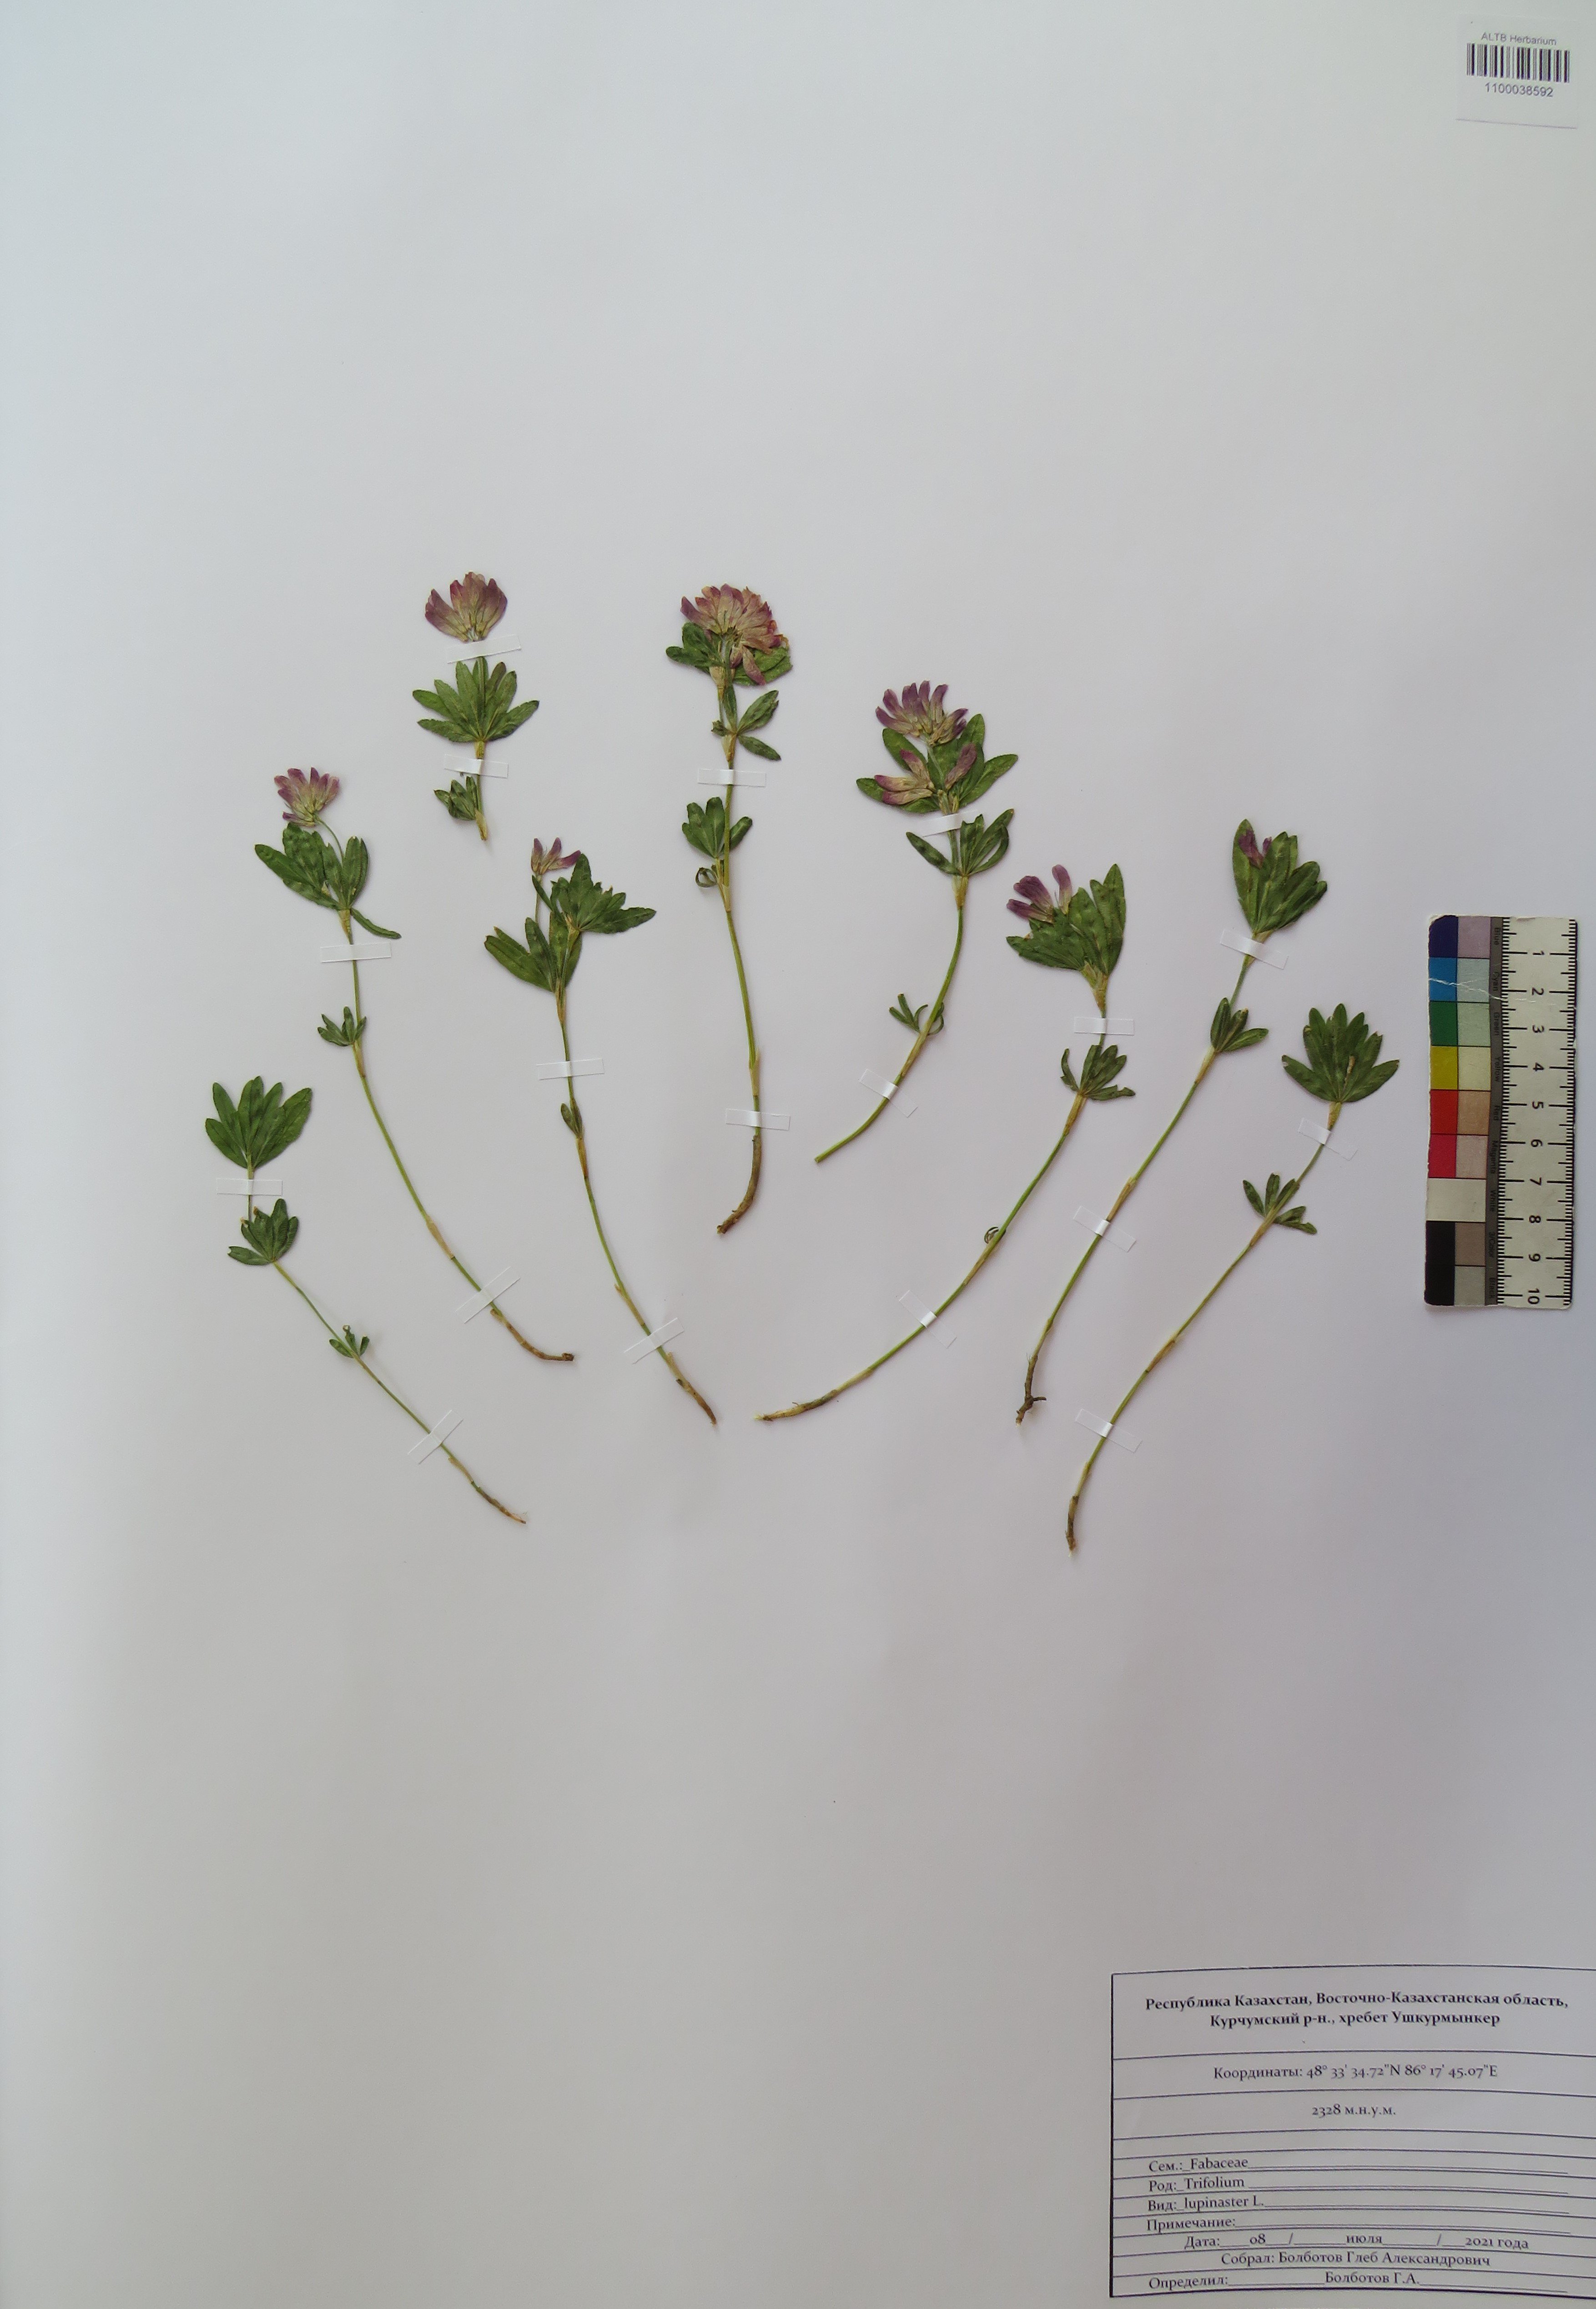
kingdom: Plantae
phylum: Tracheophyta
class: Magnoliopsida
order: Fabales
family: Fabaceae
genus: Trifolium
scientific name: Trifolium lupinaster
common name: Lupine clover
